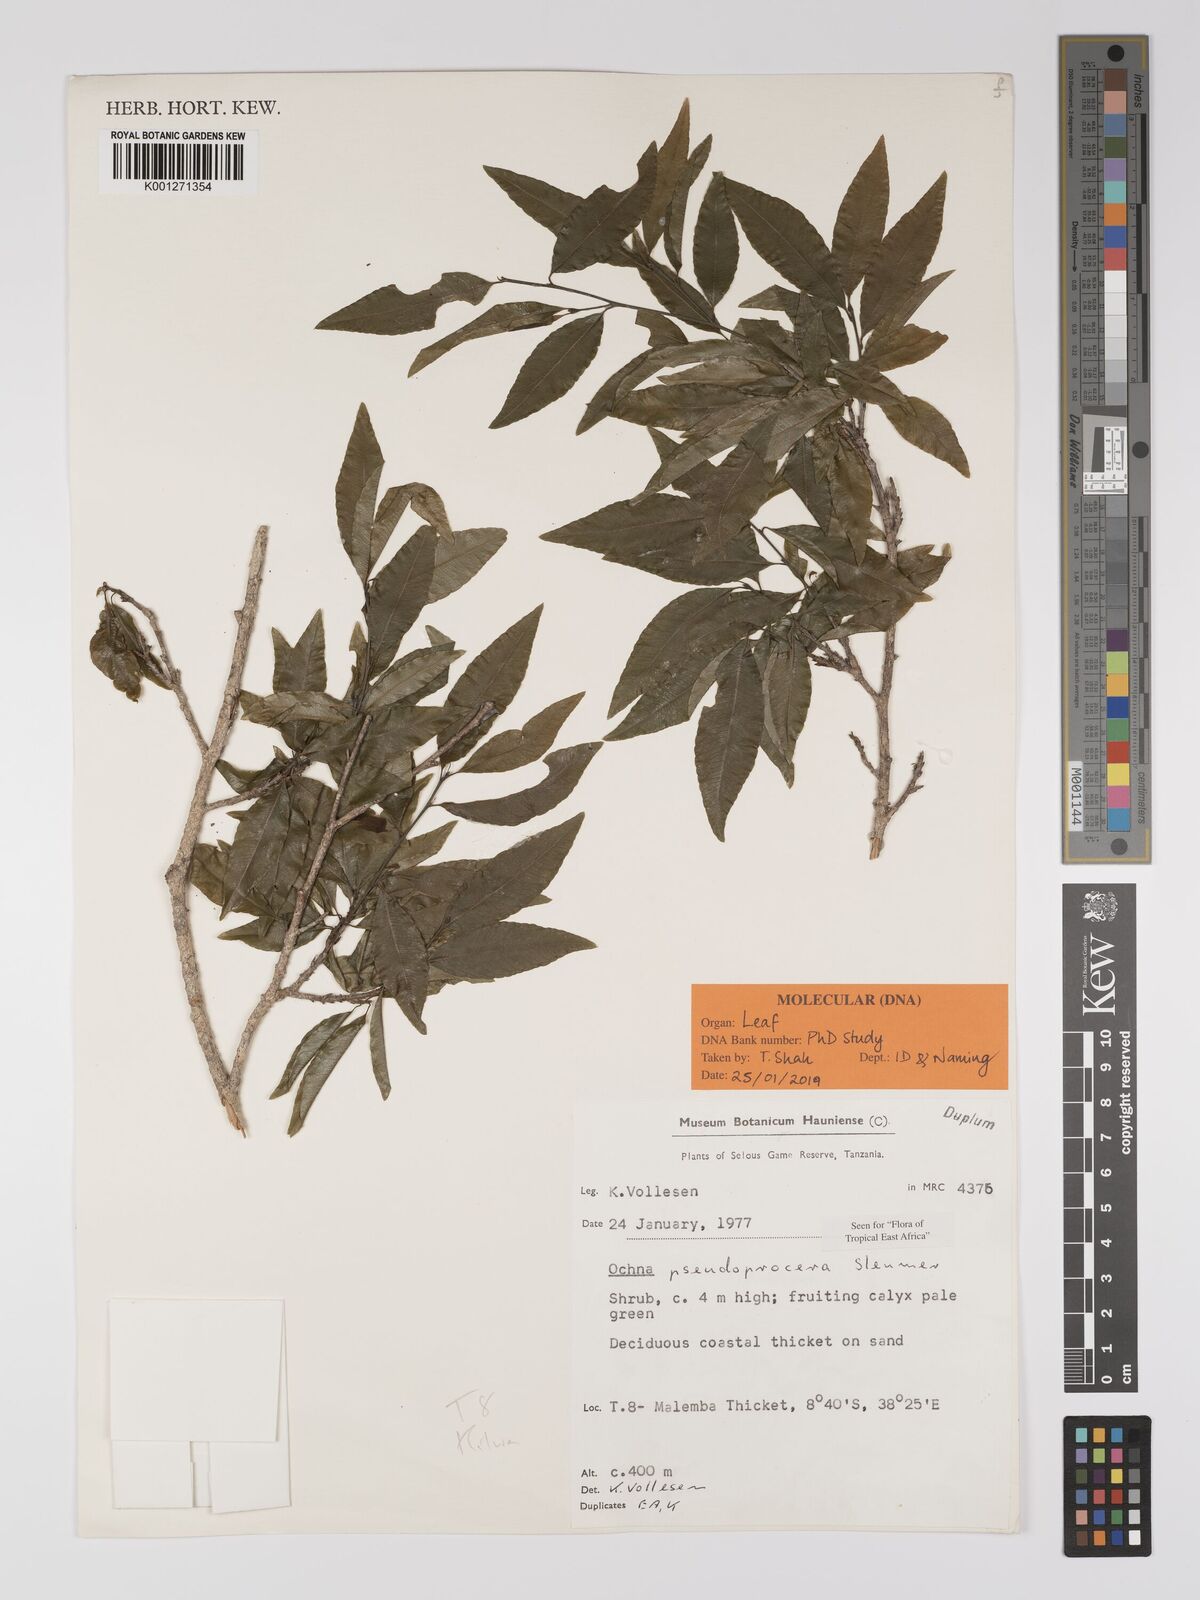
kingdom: Plantae
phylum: Tracheophyta
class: Magnoliopsida
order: Malpighiales
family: Ochnaceae
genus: Ochna
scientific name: Ochna pseudoprocera
